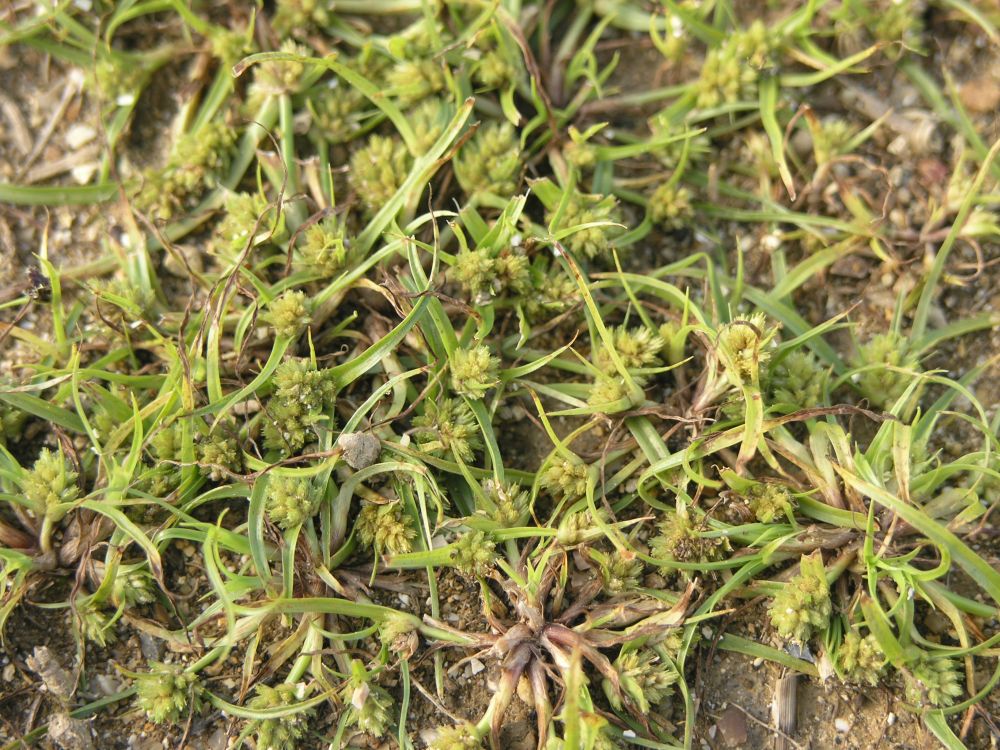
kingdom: Plantae
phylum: Tracheophyta
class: Liliopsida
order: Poales
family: Cyperaceae
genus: Cyperus
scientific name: Cyperus michelianus
